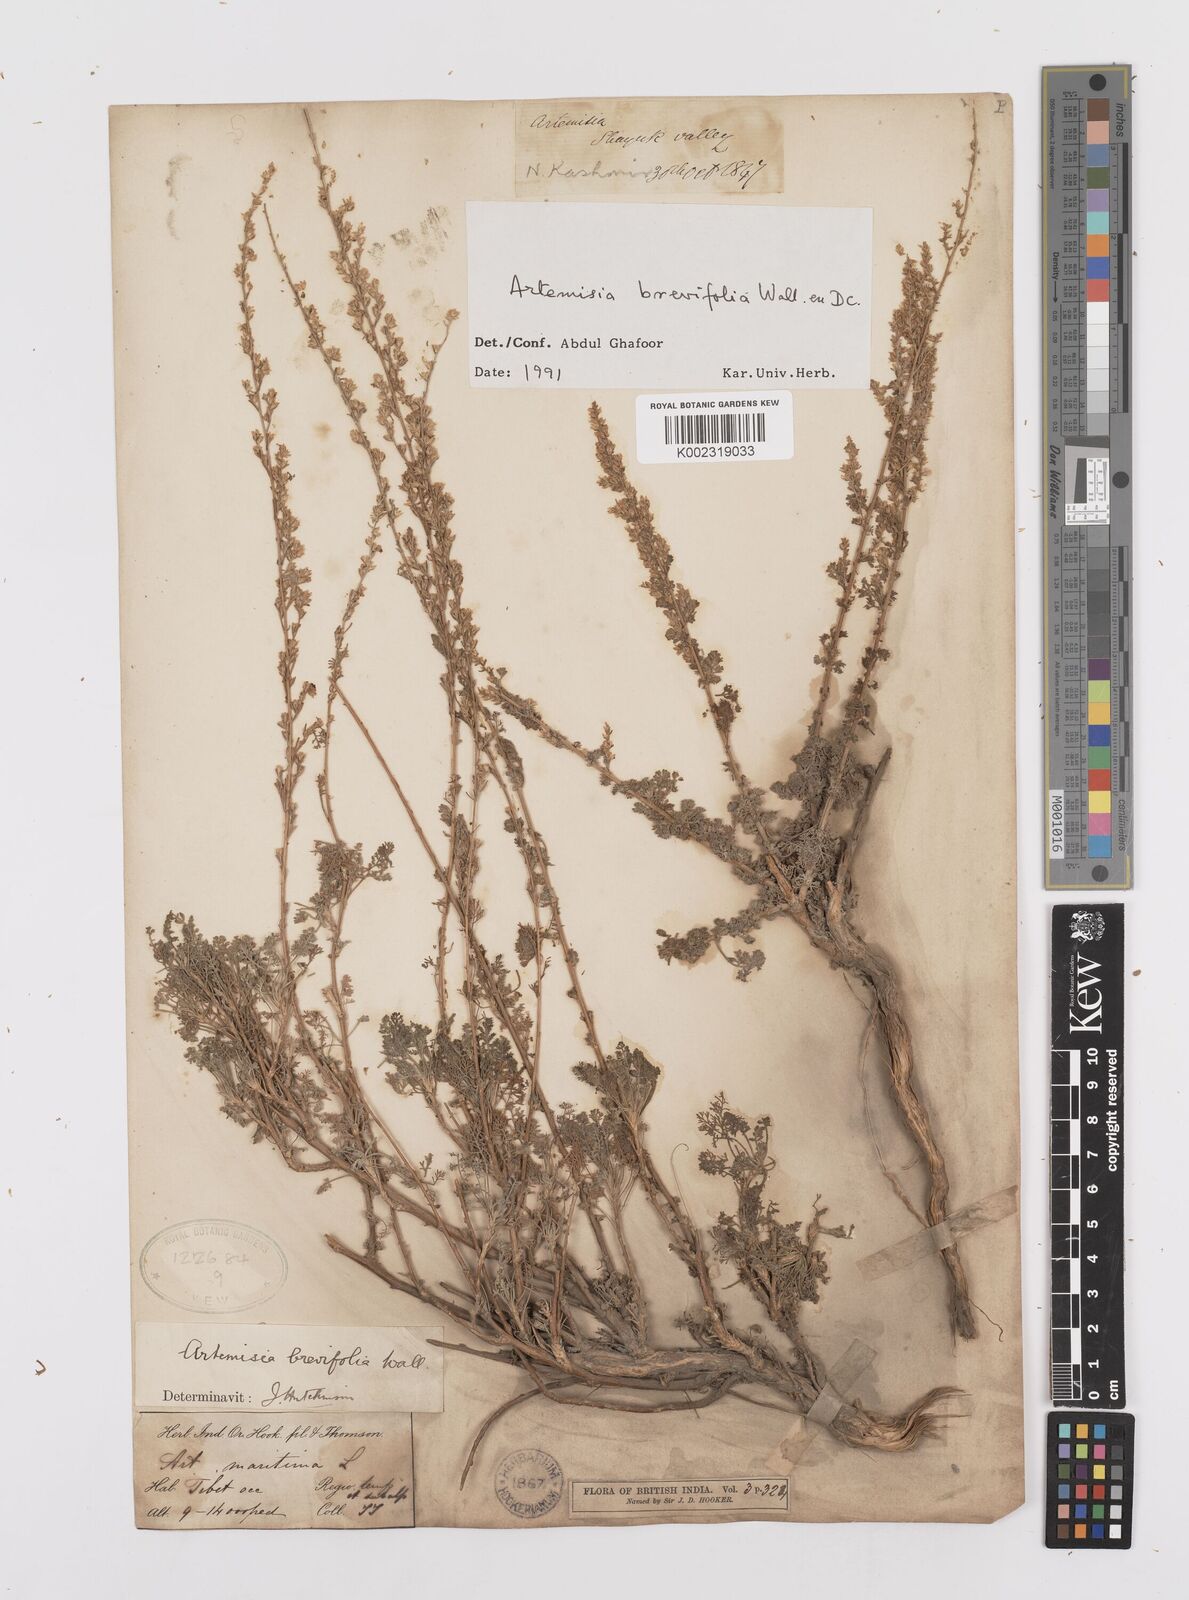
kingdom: Plantae
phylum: Tracheophyta
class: Magnoliopsida
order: Asterales
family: Asteraceae
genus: Artemisia
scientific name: Artemisia brevifolia
